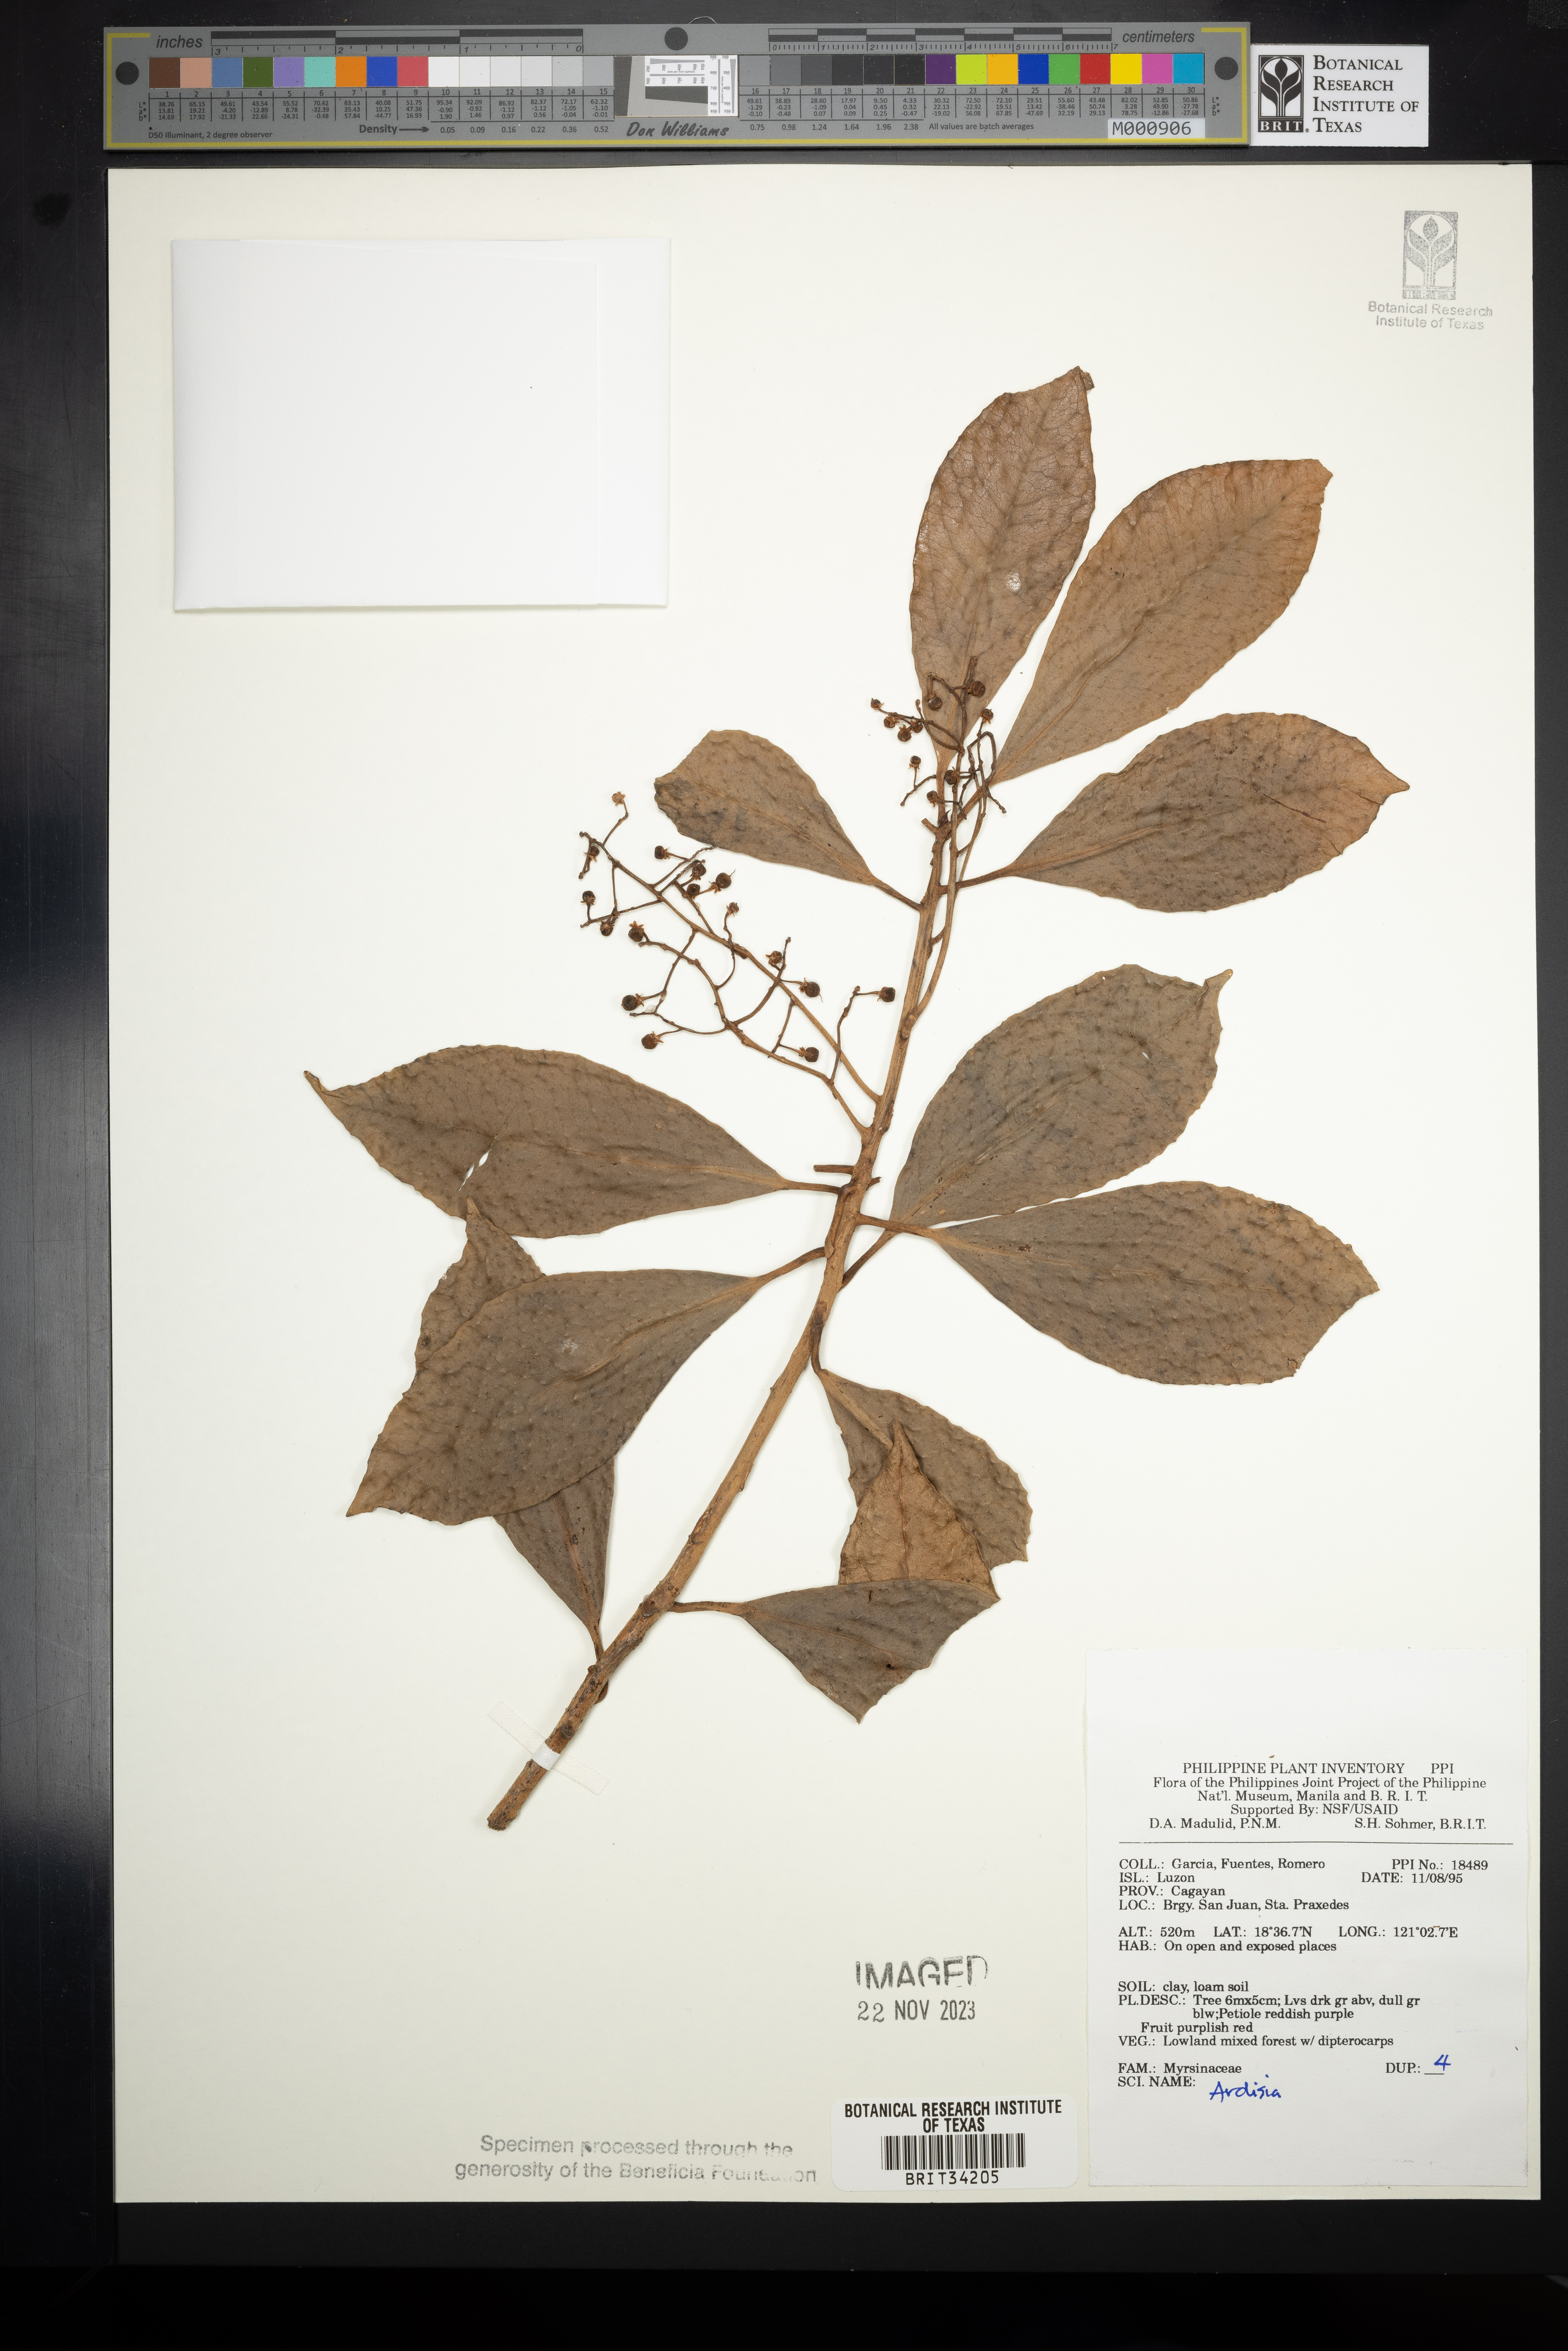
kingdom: Plantae
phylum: Tracheophyta
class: Magnoliopsida
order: Ericales
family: Primulaceae
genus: Ardisia
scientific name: Ardisia
